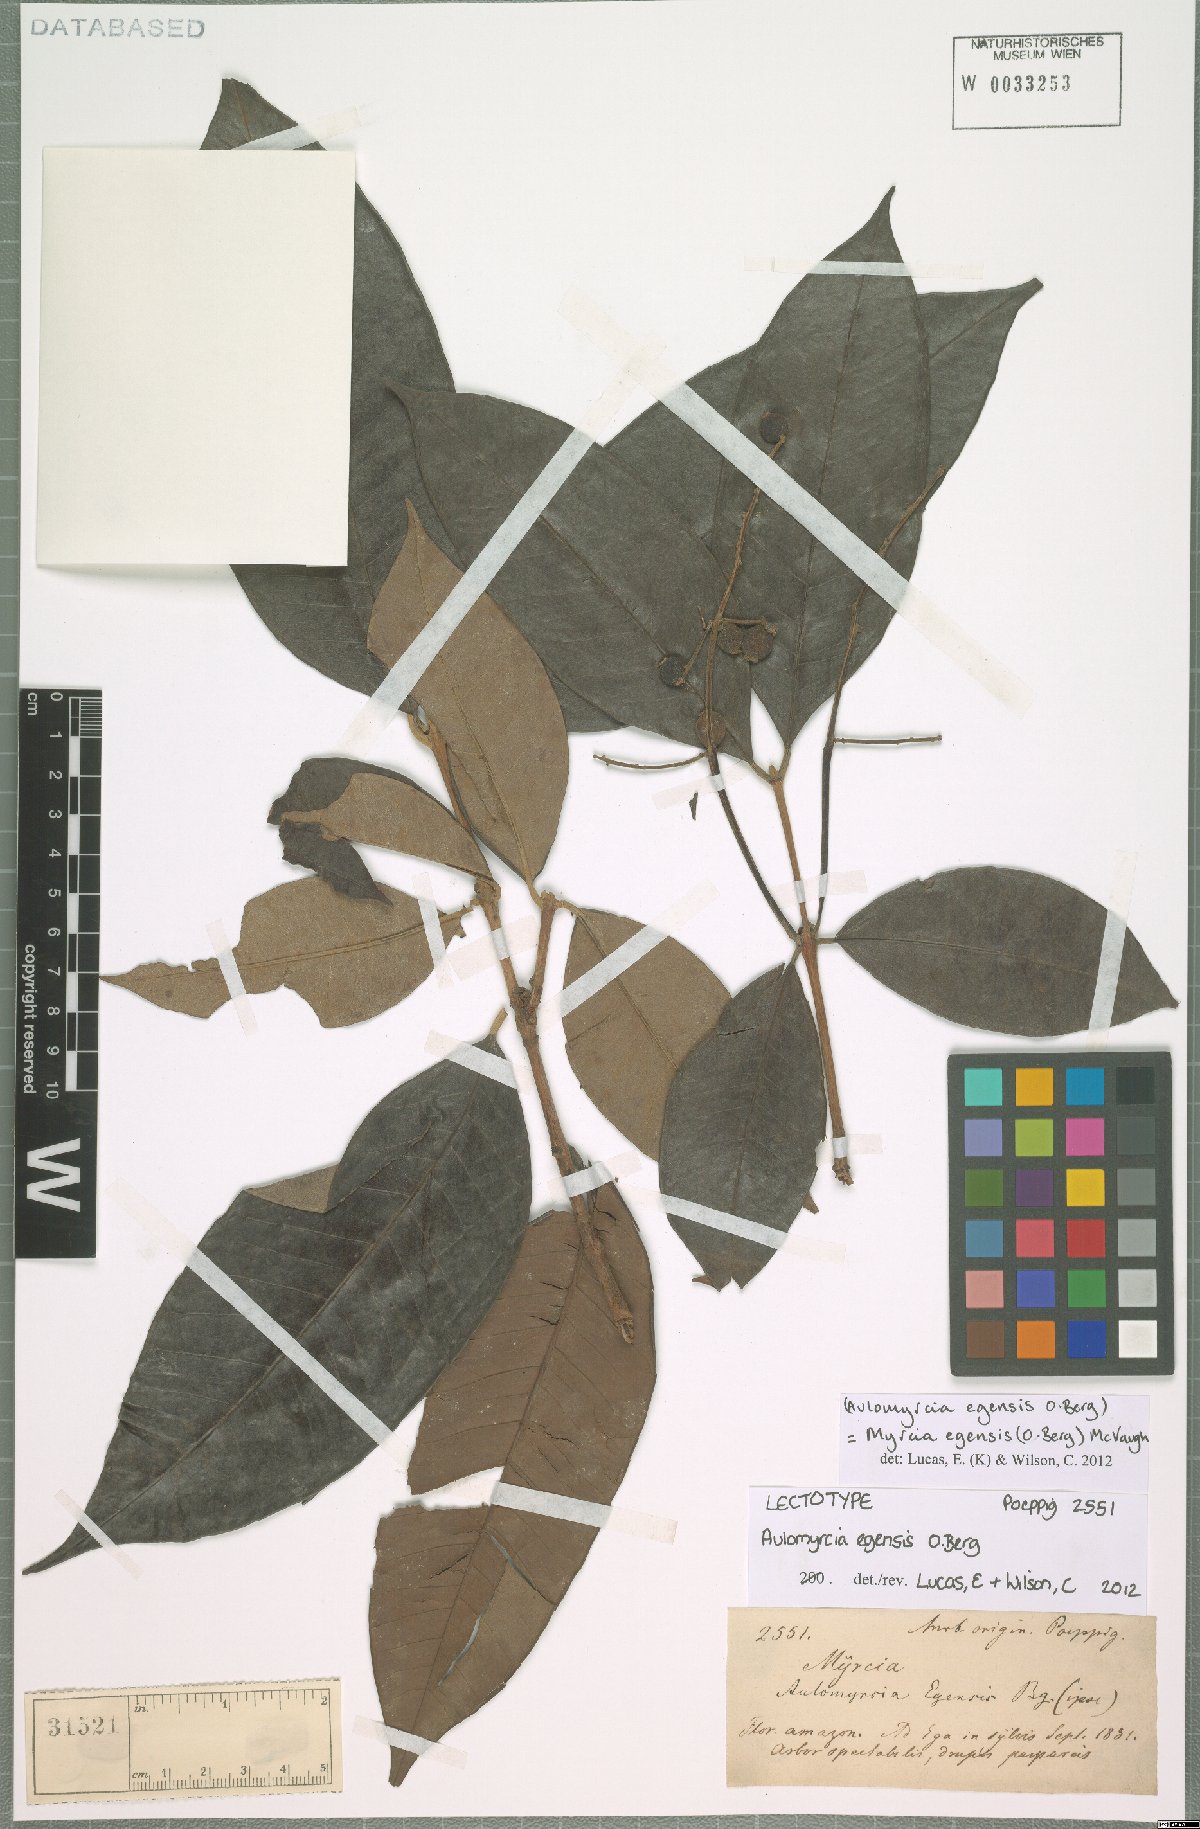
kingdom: Plantae
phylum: Tracheophyta
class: Magnoliopsida
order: Myrtales
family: Myrtaceae
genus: Myrcia
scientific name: Myrcia egensis
